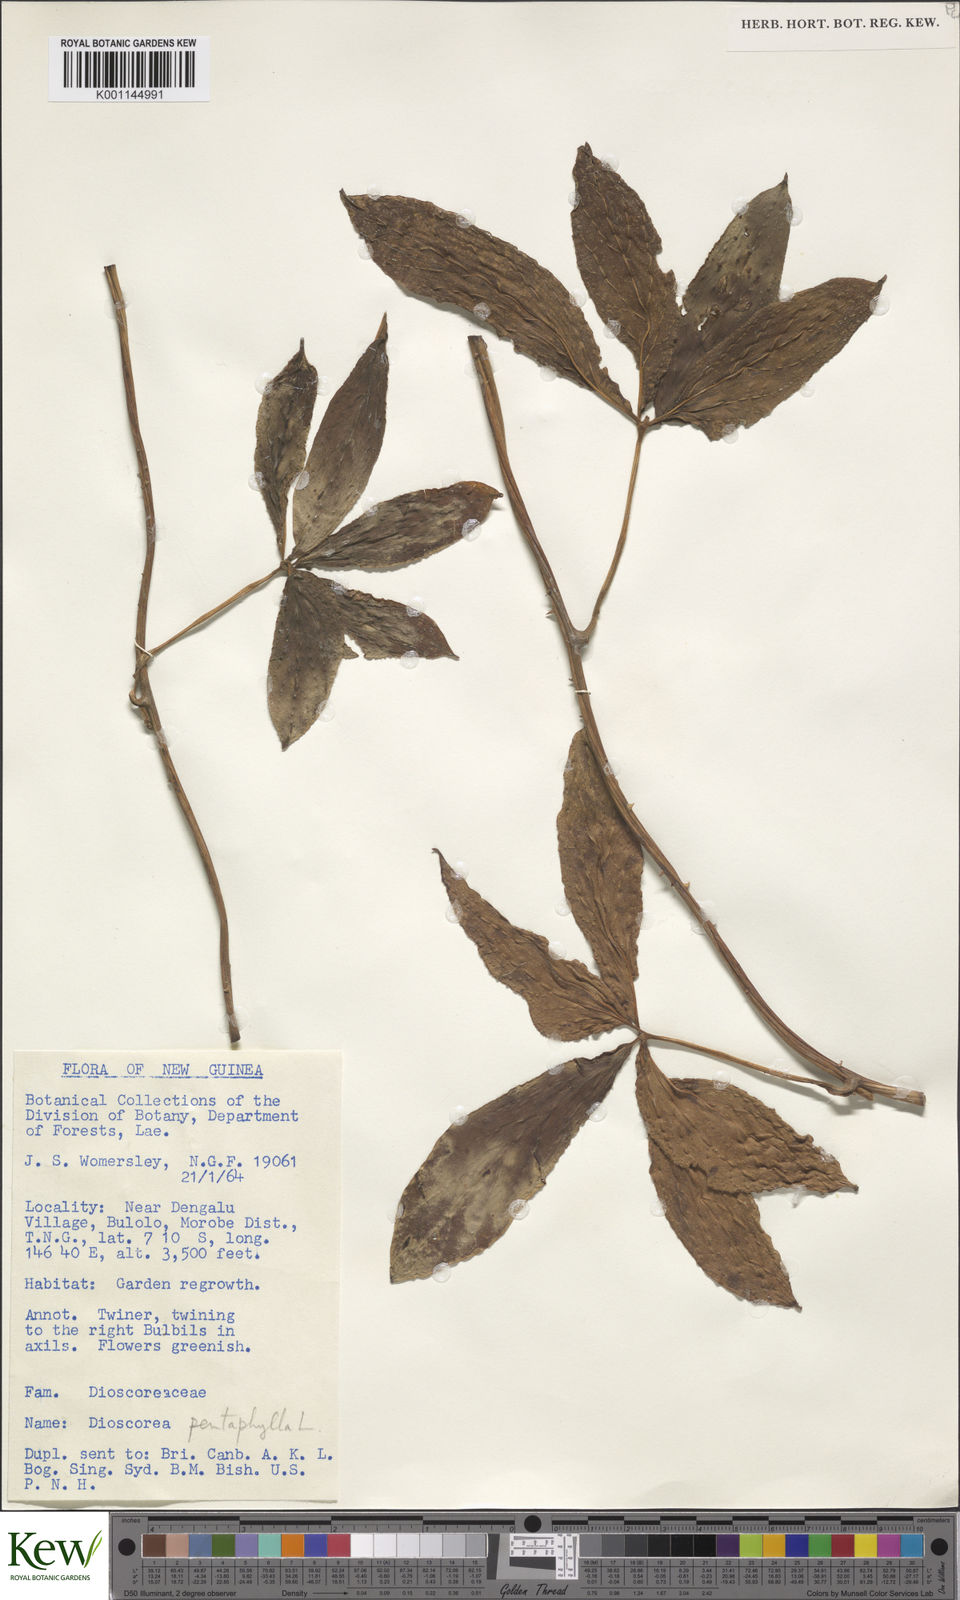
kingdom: Plantae
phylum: Tracheophyta
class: Liliopsida
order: Dioscoreales
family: Dioscoreaceae
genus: Dioscorea
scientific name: Dioscorea pentaphylla
